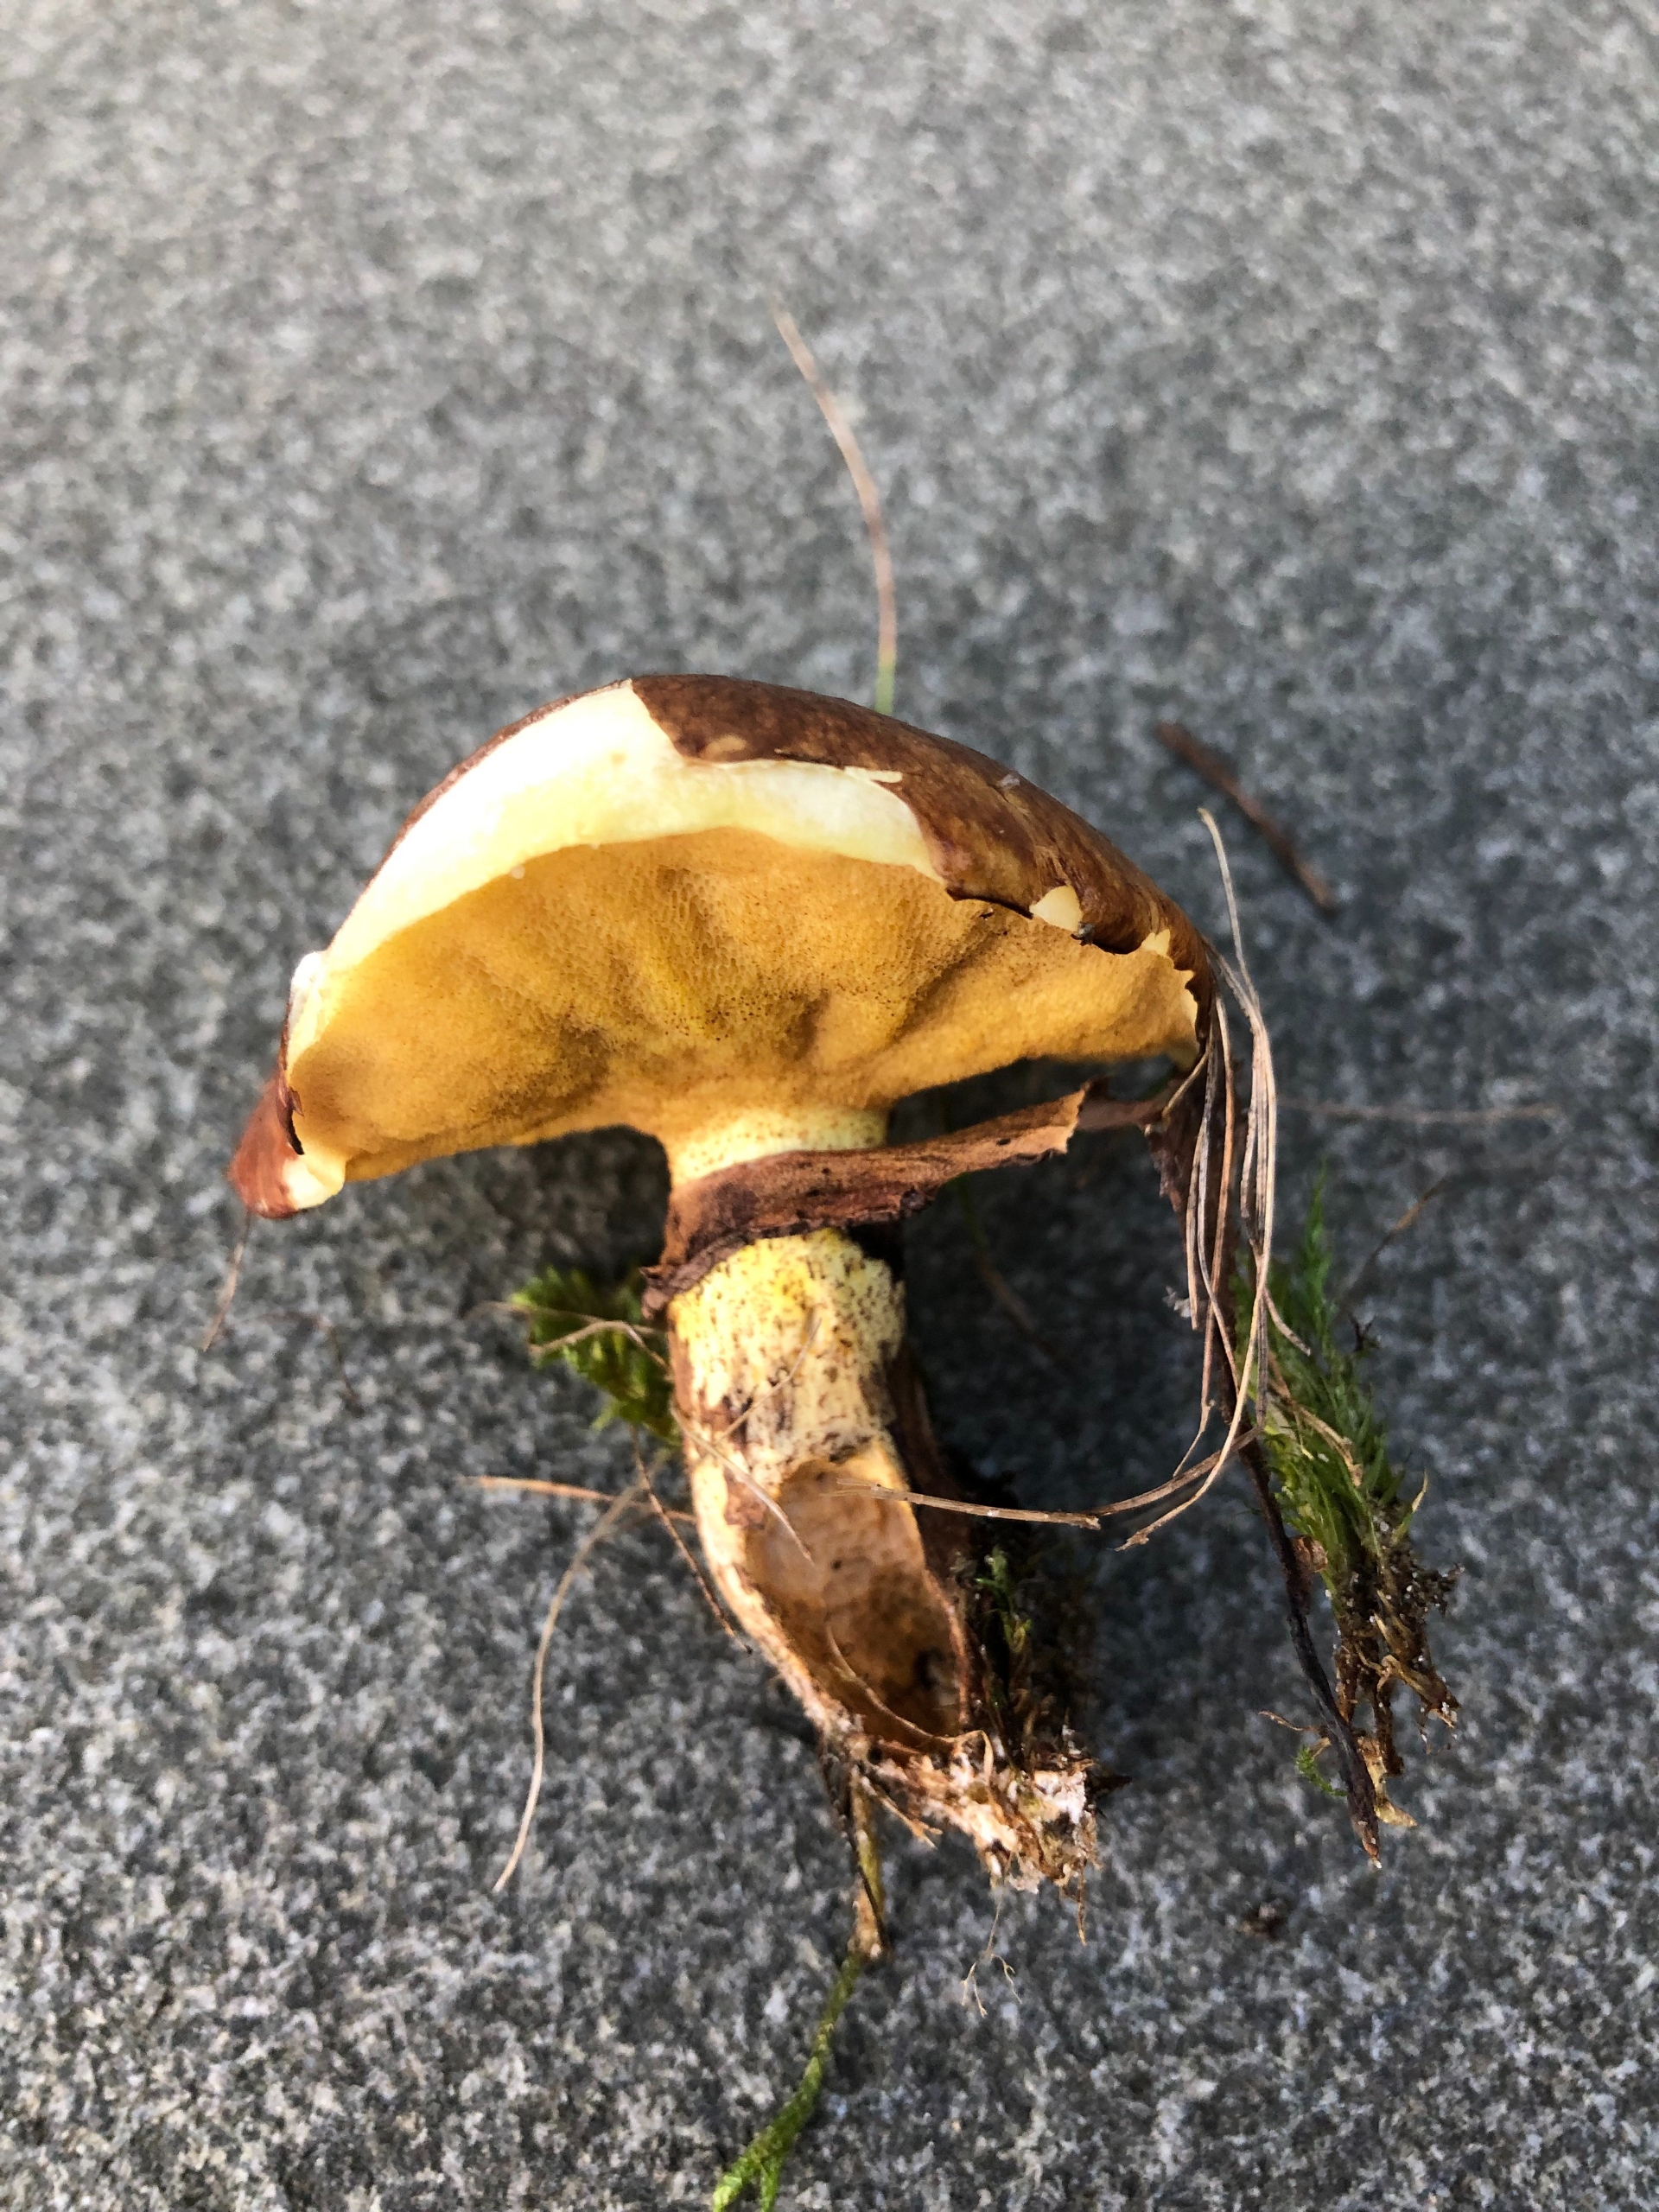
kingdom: Fungi
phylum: Basidiomycota
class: Agaricomycetes
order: Boletales
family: Suillaceae
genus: Suillus
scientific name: Suillus luteus
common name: Brungul slimrørhat
